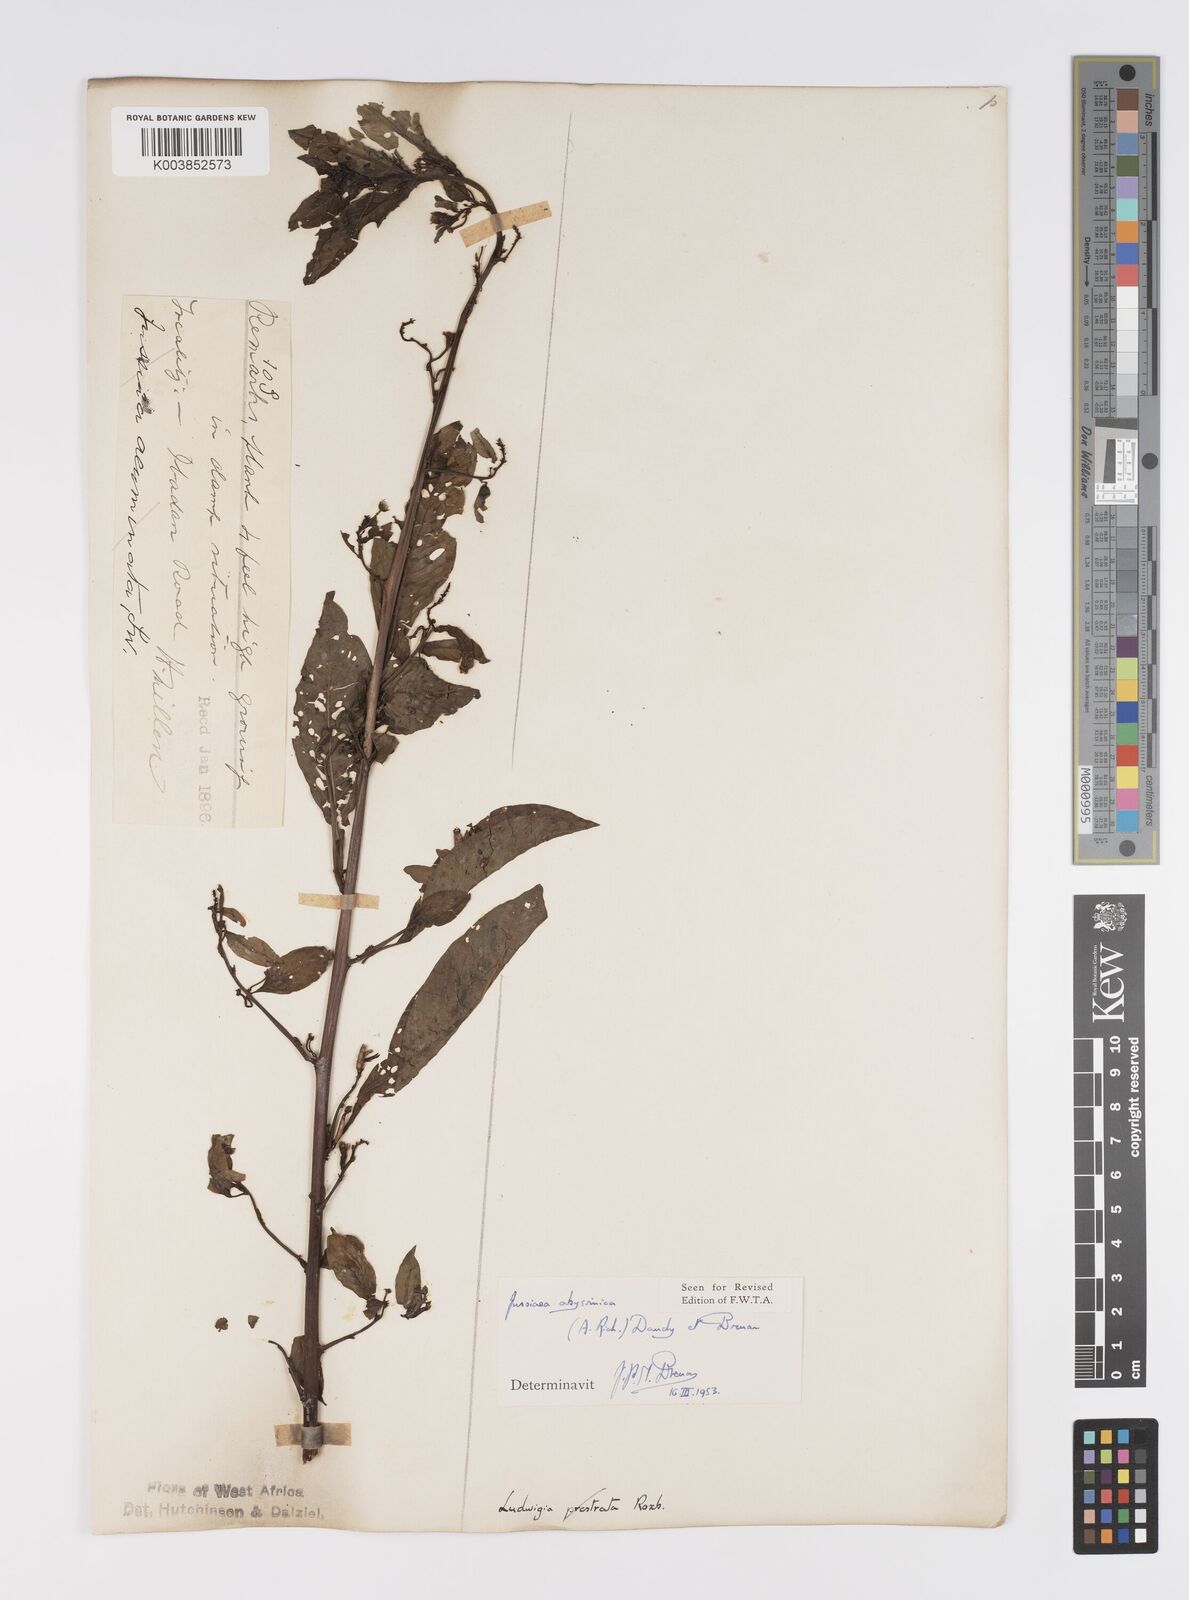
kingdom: Plantae
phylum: Tracheophyta
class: Magnoliopsida
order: Myrtales
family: Onagraceae
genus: Ludwigia
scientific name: Ludwigia abyssinica
